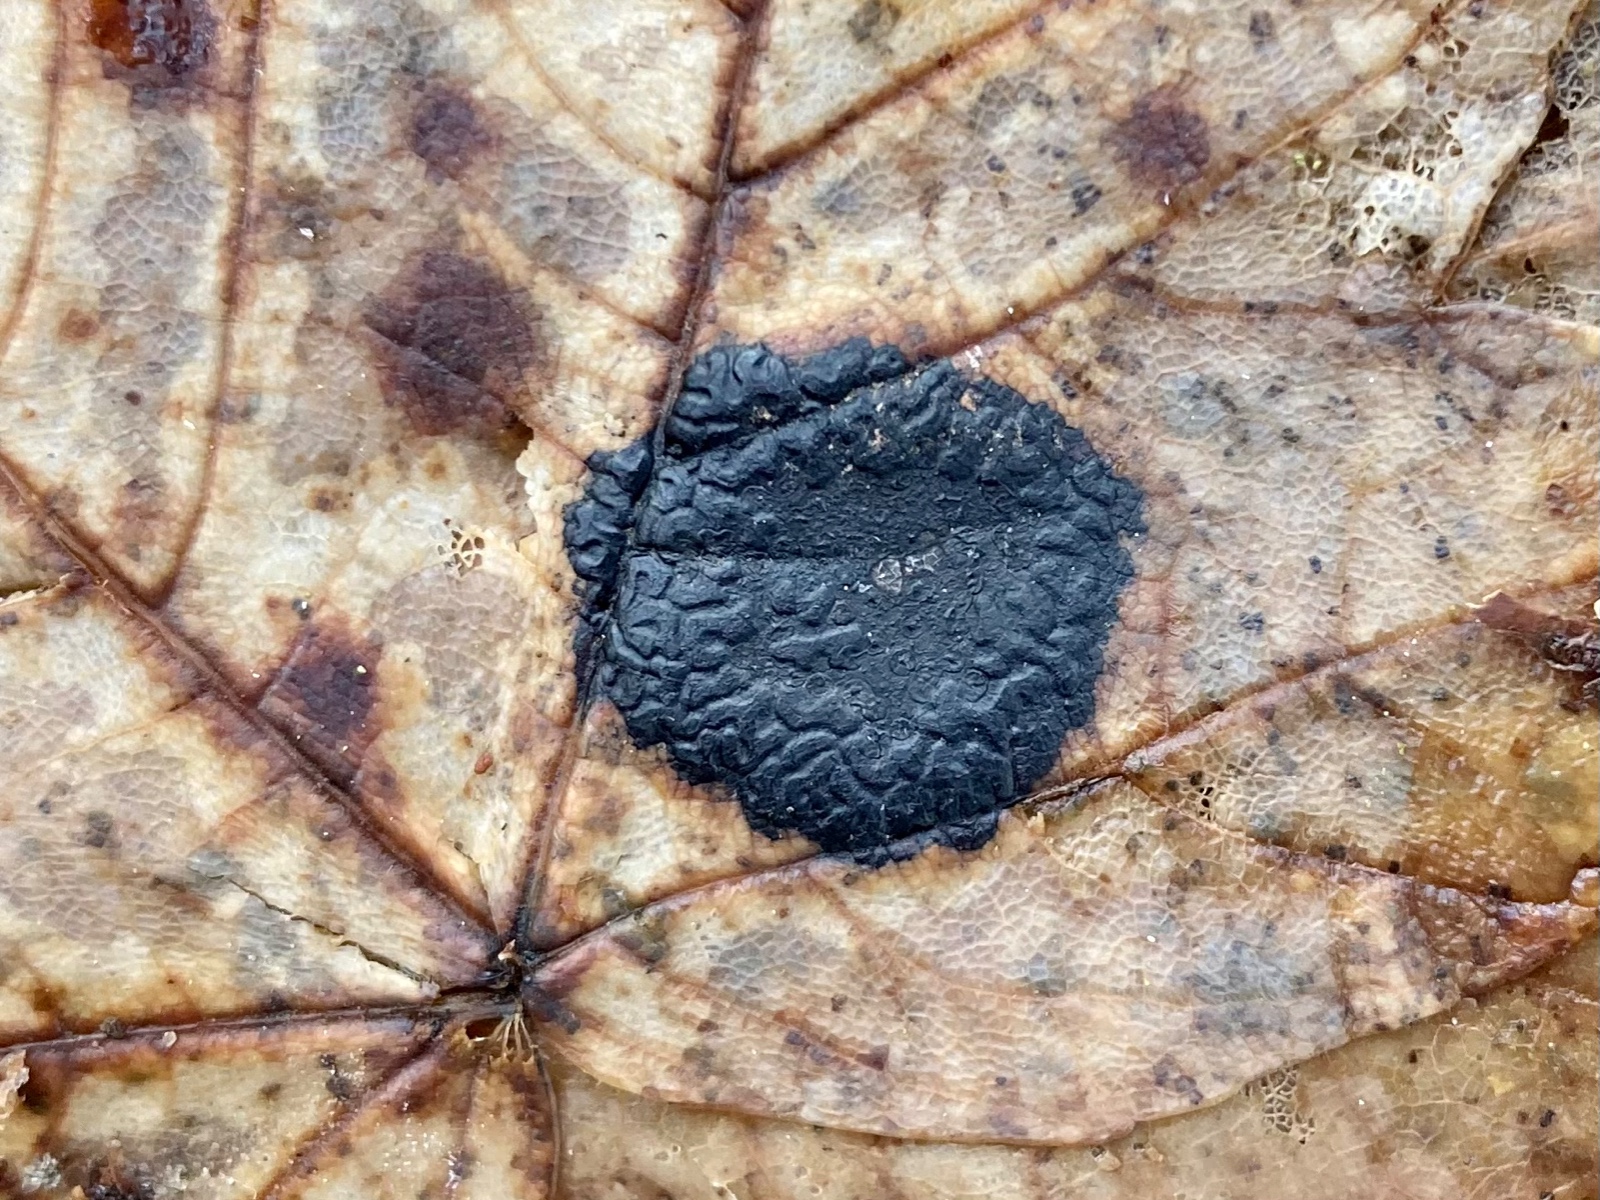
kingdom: Fungi
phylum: Ascomycota
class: Leotiomycetes
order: Rhytismatales
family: Rhytismataceae
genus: Rhytisma
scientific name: Rhytisma acerinum
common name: ahorn-rynkeplet
